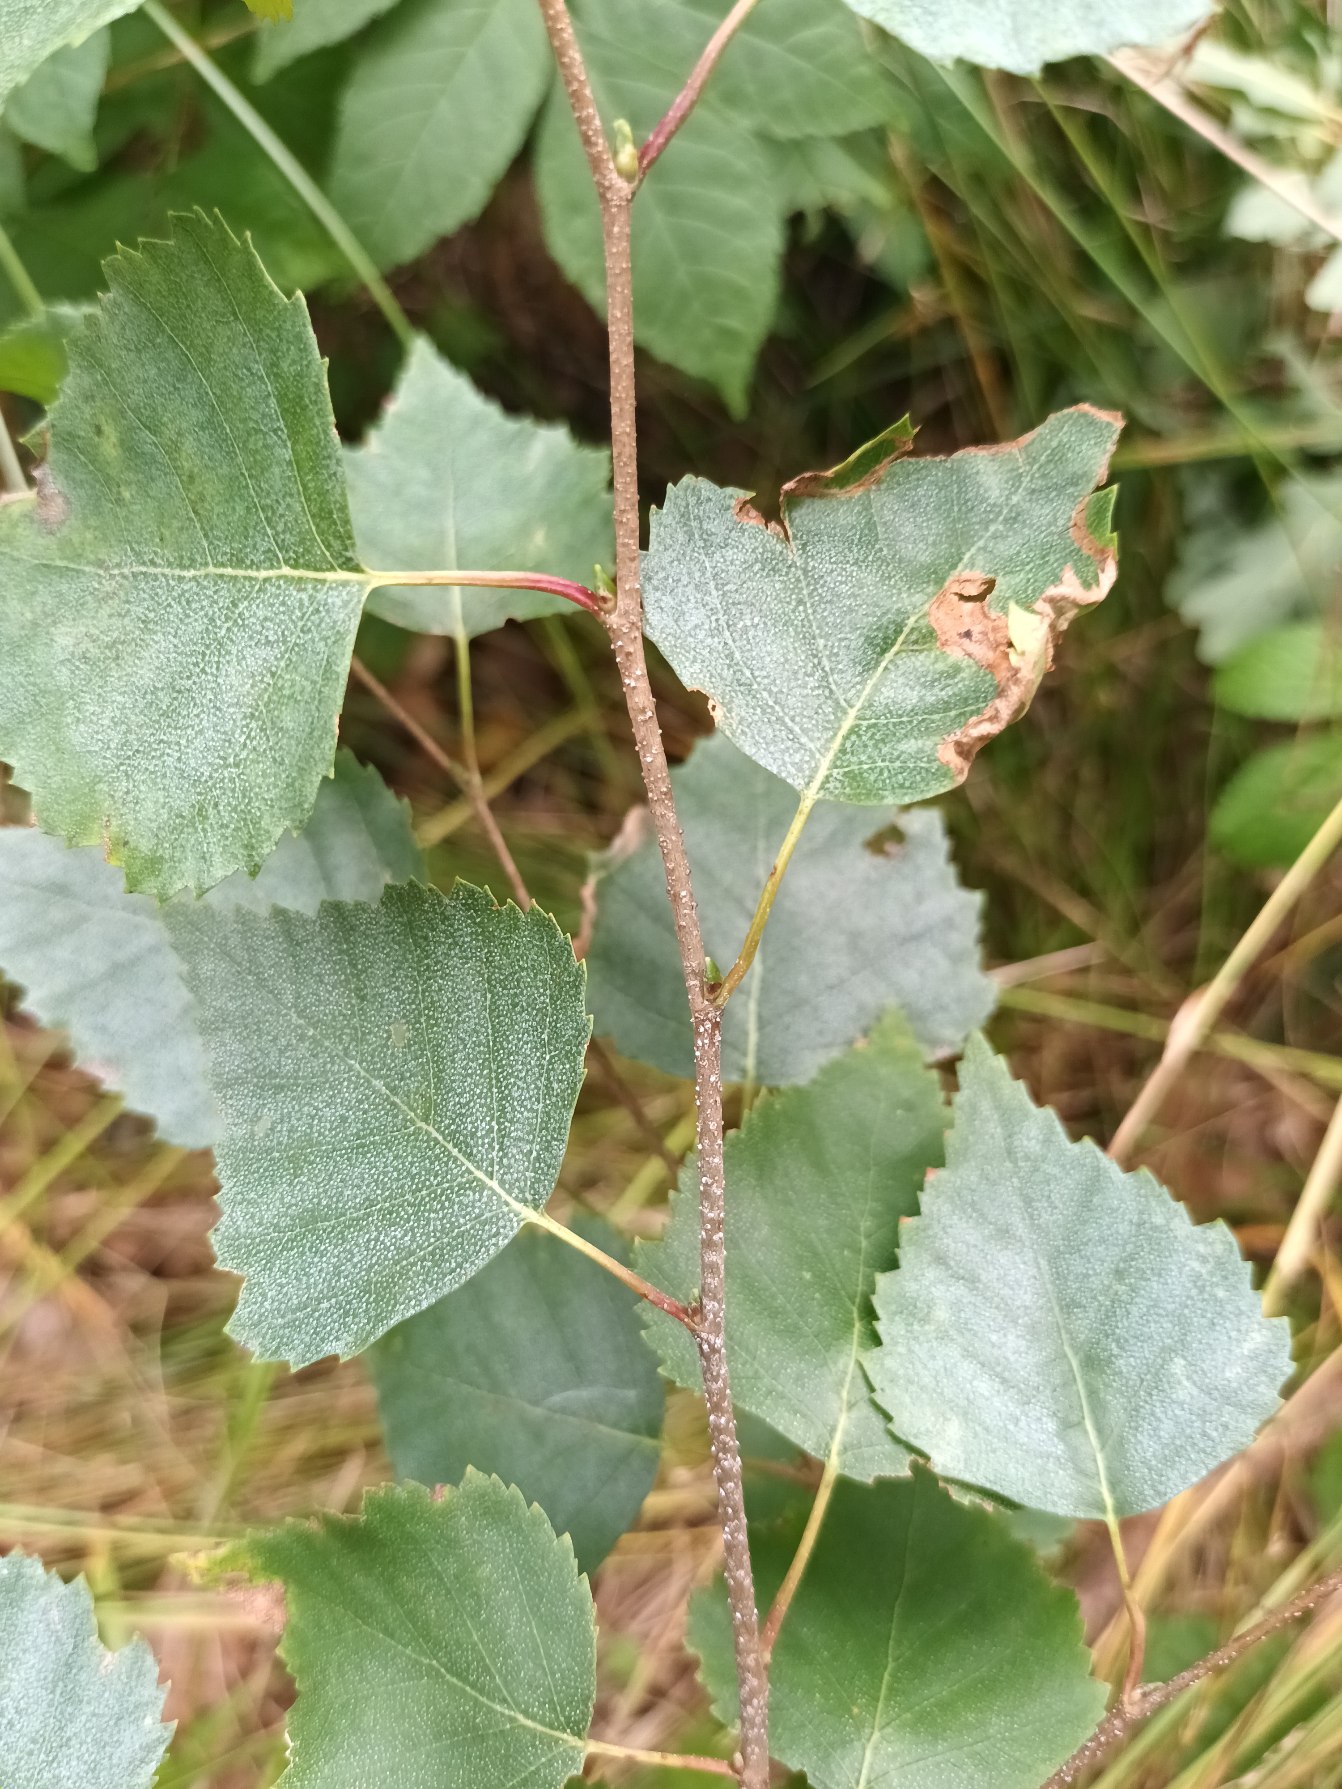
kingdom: Plantae
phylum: Tracheophyta
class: Magnoliopsida
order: Fagales
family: Betulaceae
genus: Betula
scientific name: Betula pendula
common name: Vorte-birk
